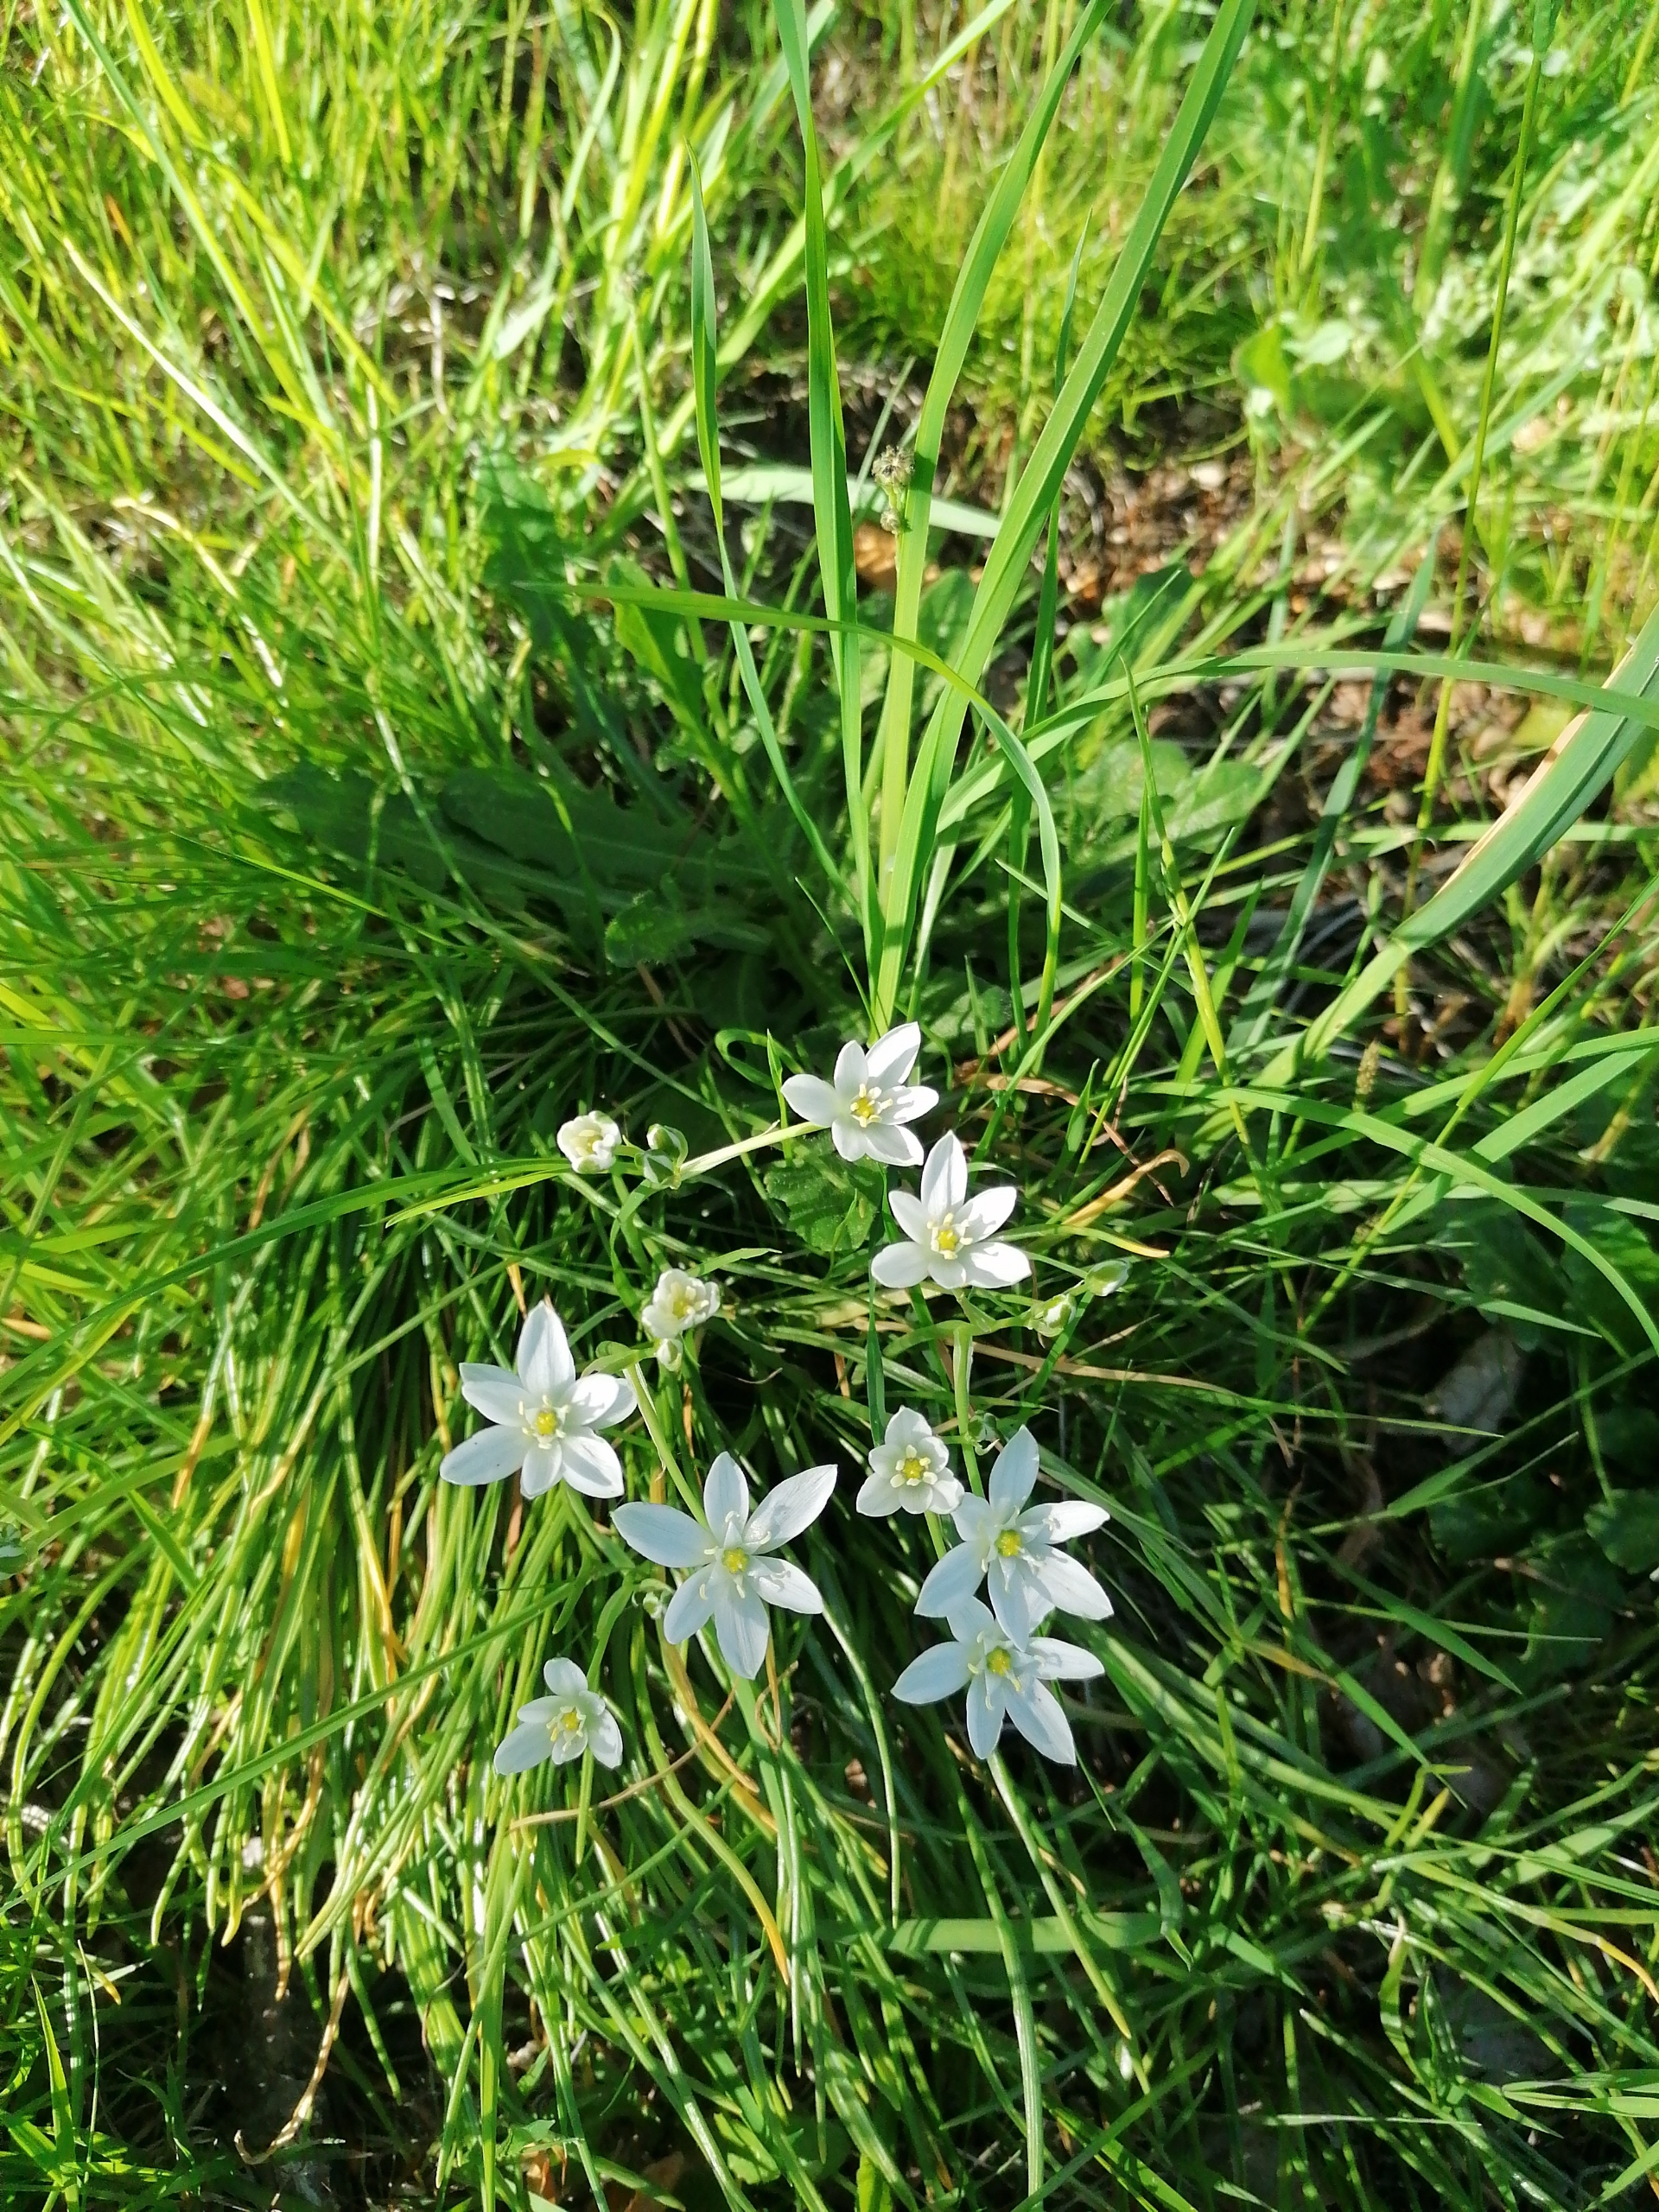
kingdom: Plantae
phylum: Tracheophyta
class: Liliopsida
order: Asparagales
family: Asparagaceae
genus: Ornithogalum
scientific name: Ornithogalum umbellatum
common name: Kost-fuglemælk
